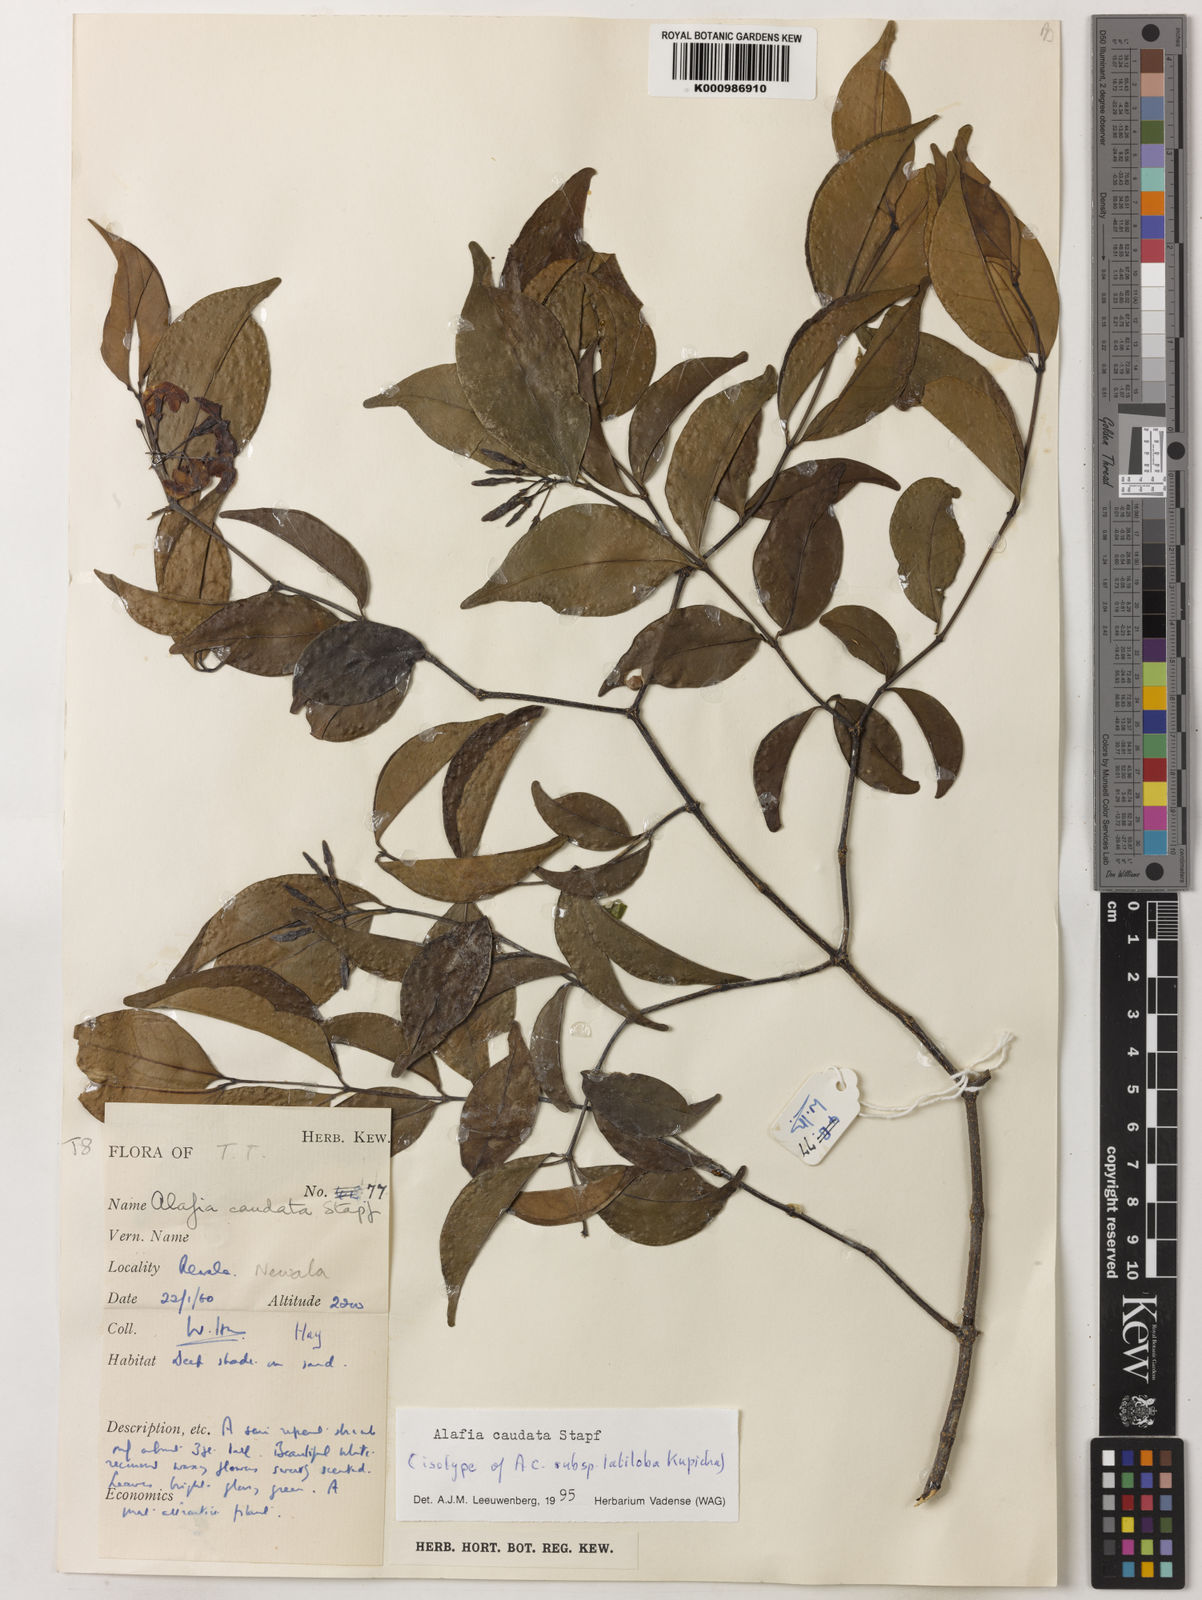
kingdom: Plantae
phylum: Tracheophyta
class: Magnoliopsida
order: Gentianales
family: Apocynaceae
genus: Alafia
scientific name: Alafia caudata
